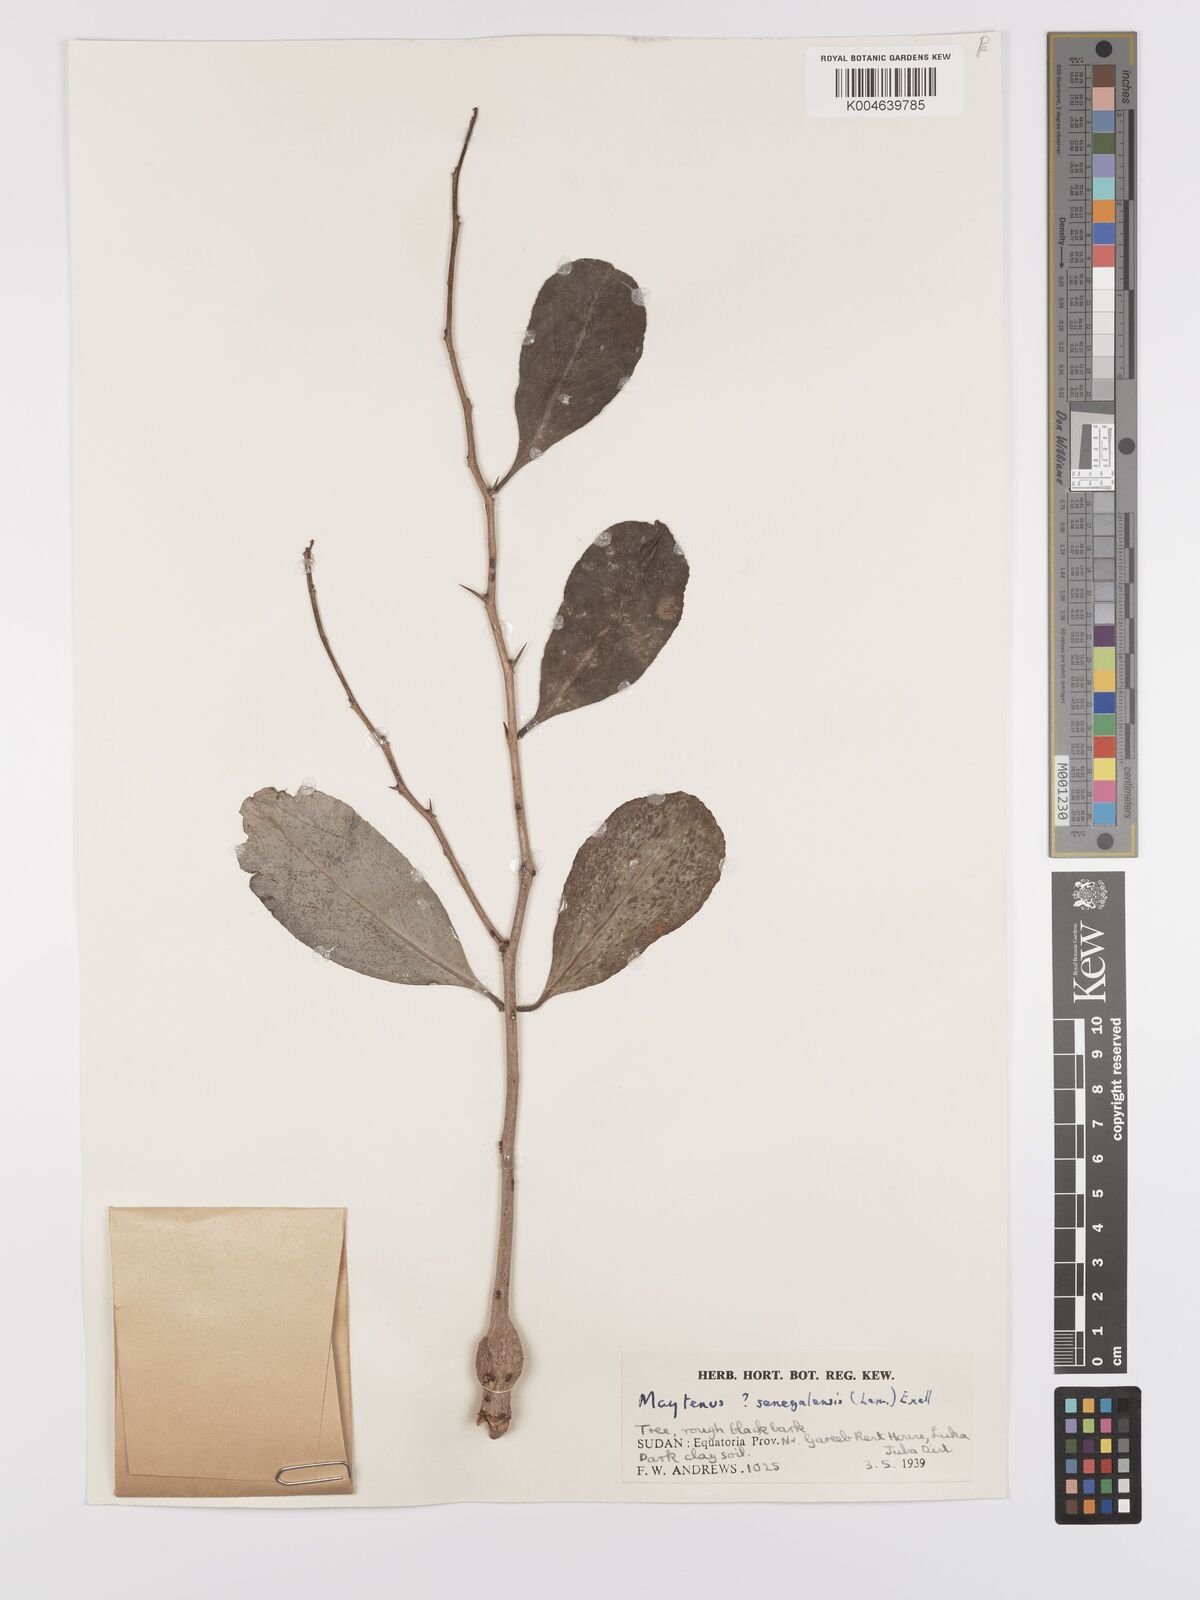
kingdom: Plantae
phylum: Tracheophyta
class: Magnoliopsida
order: Celastrales
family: Celastraceae
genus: Gymnosporia
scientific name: Gymnosporia senegalensis
